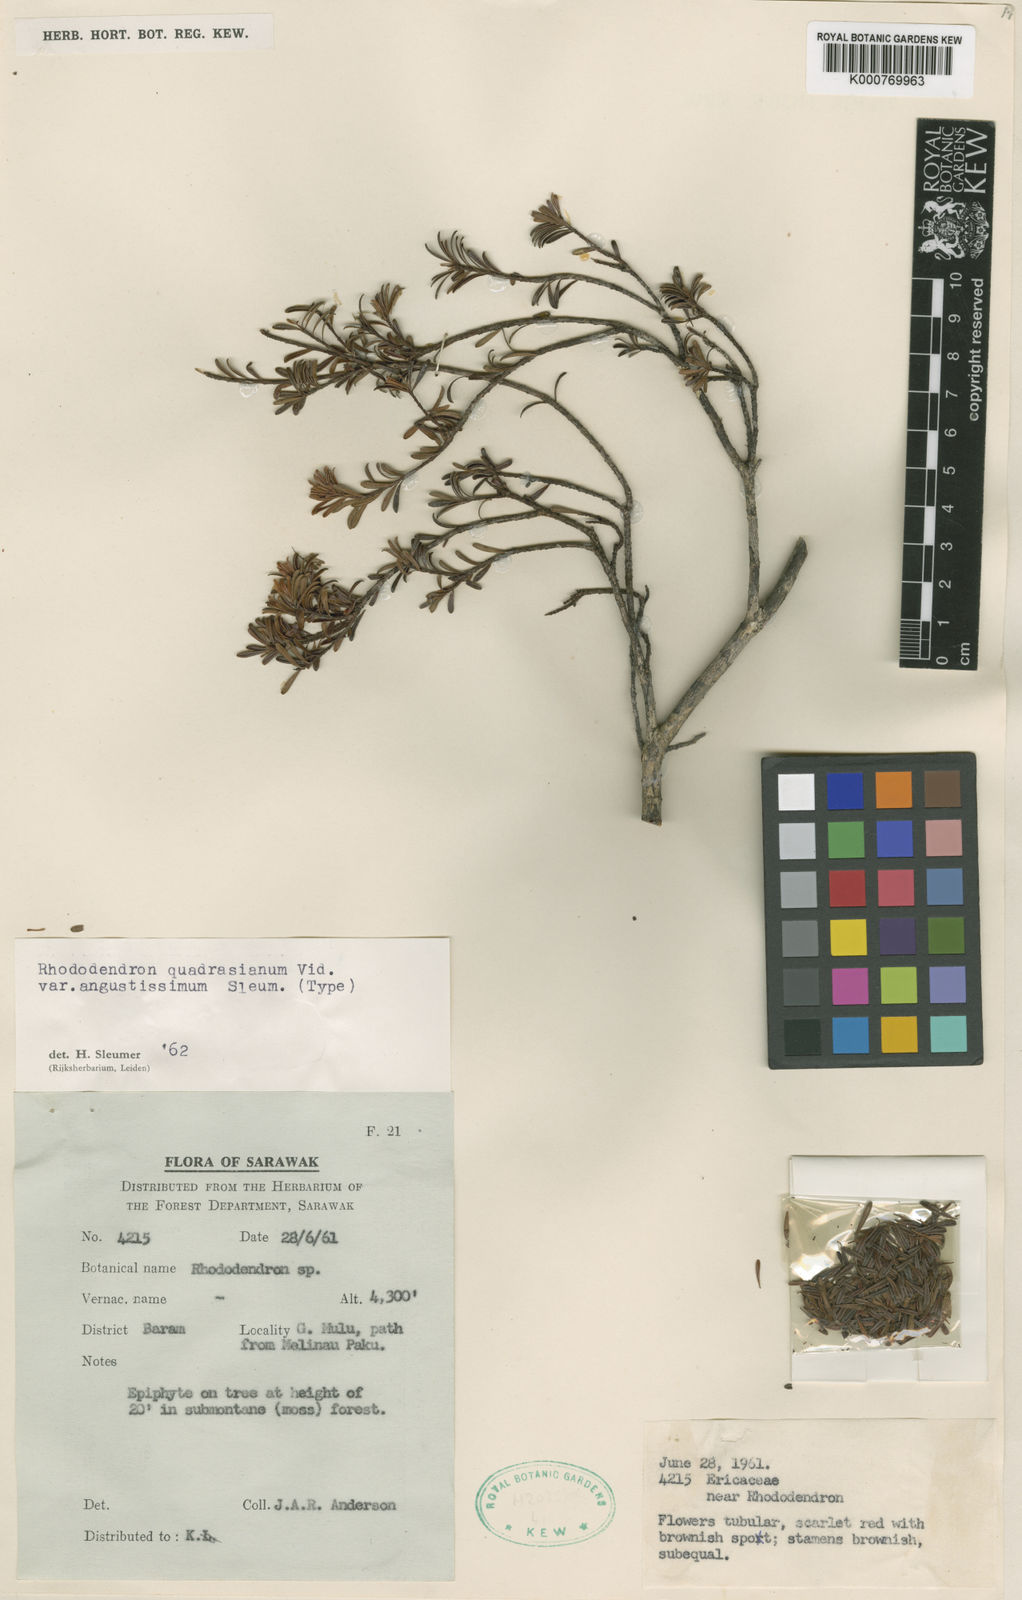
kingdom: Plantae
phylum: Tracheophyta
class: Magnoliopsida
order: Ericales
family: Ericaceae
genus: Rhododendron
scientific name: Rhododendron quadrasianum
